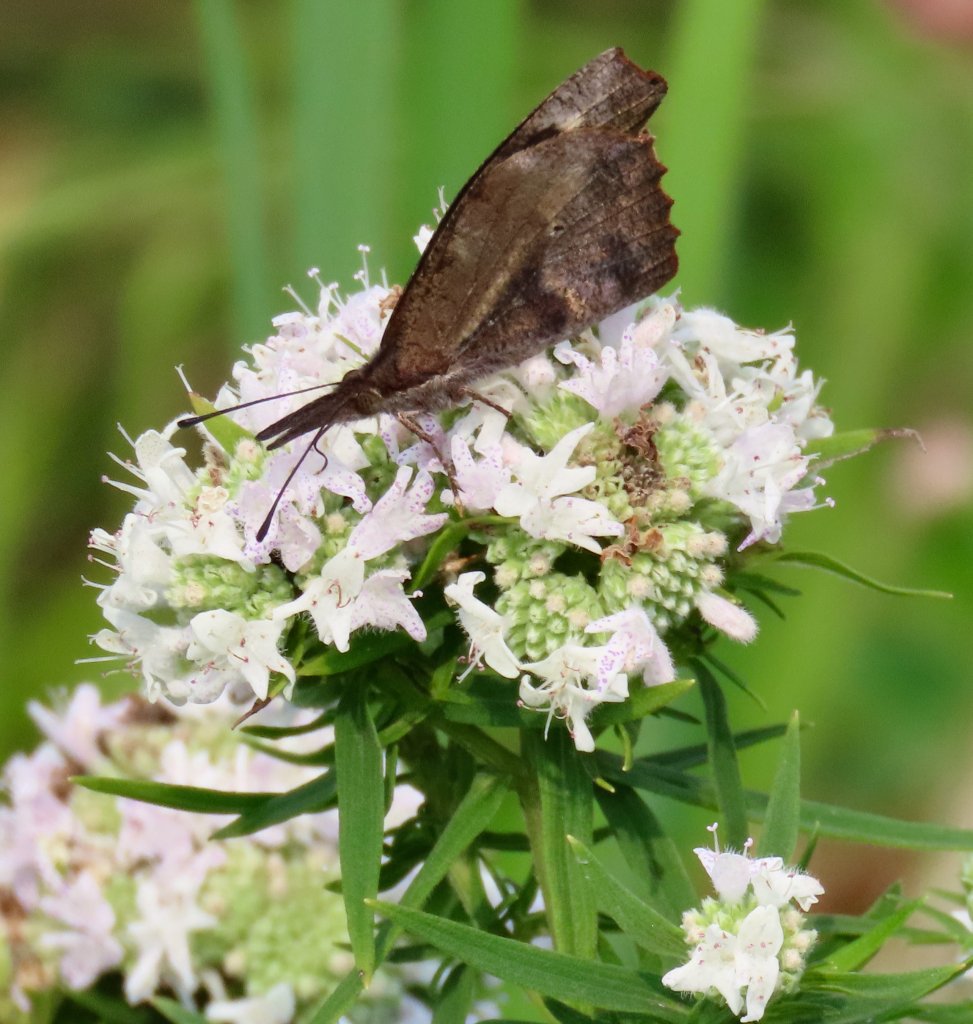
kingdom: Animalia
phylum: Arthropoda
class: Insecta
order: Lepidoptera
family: Nymphalidae
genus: Libytheana
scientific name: Libytheana carinenta
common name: American Snout
